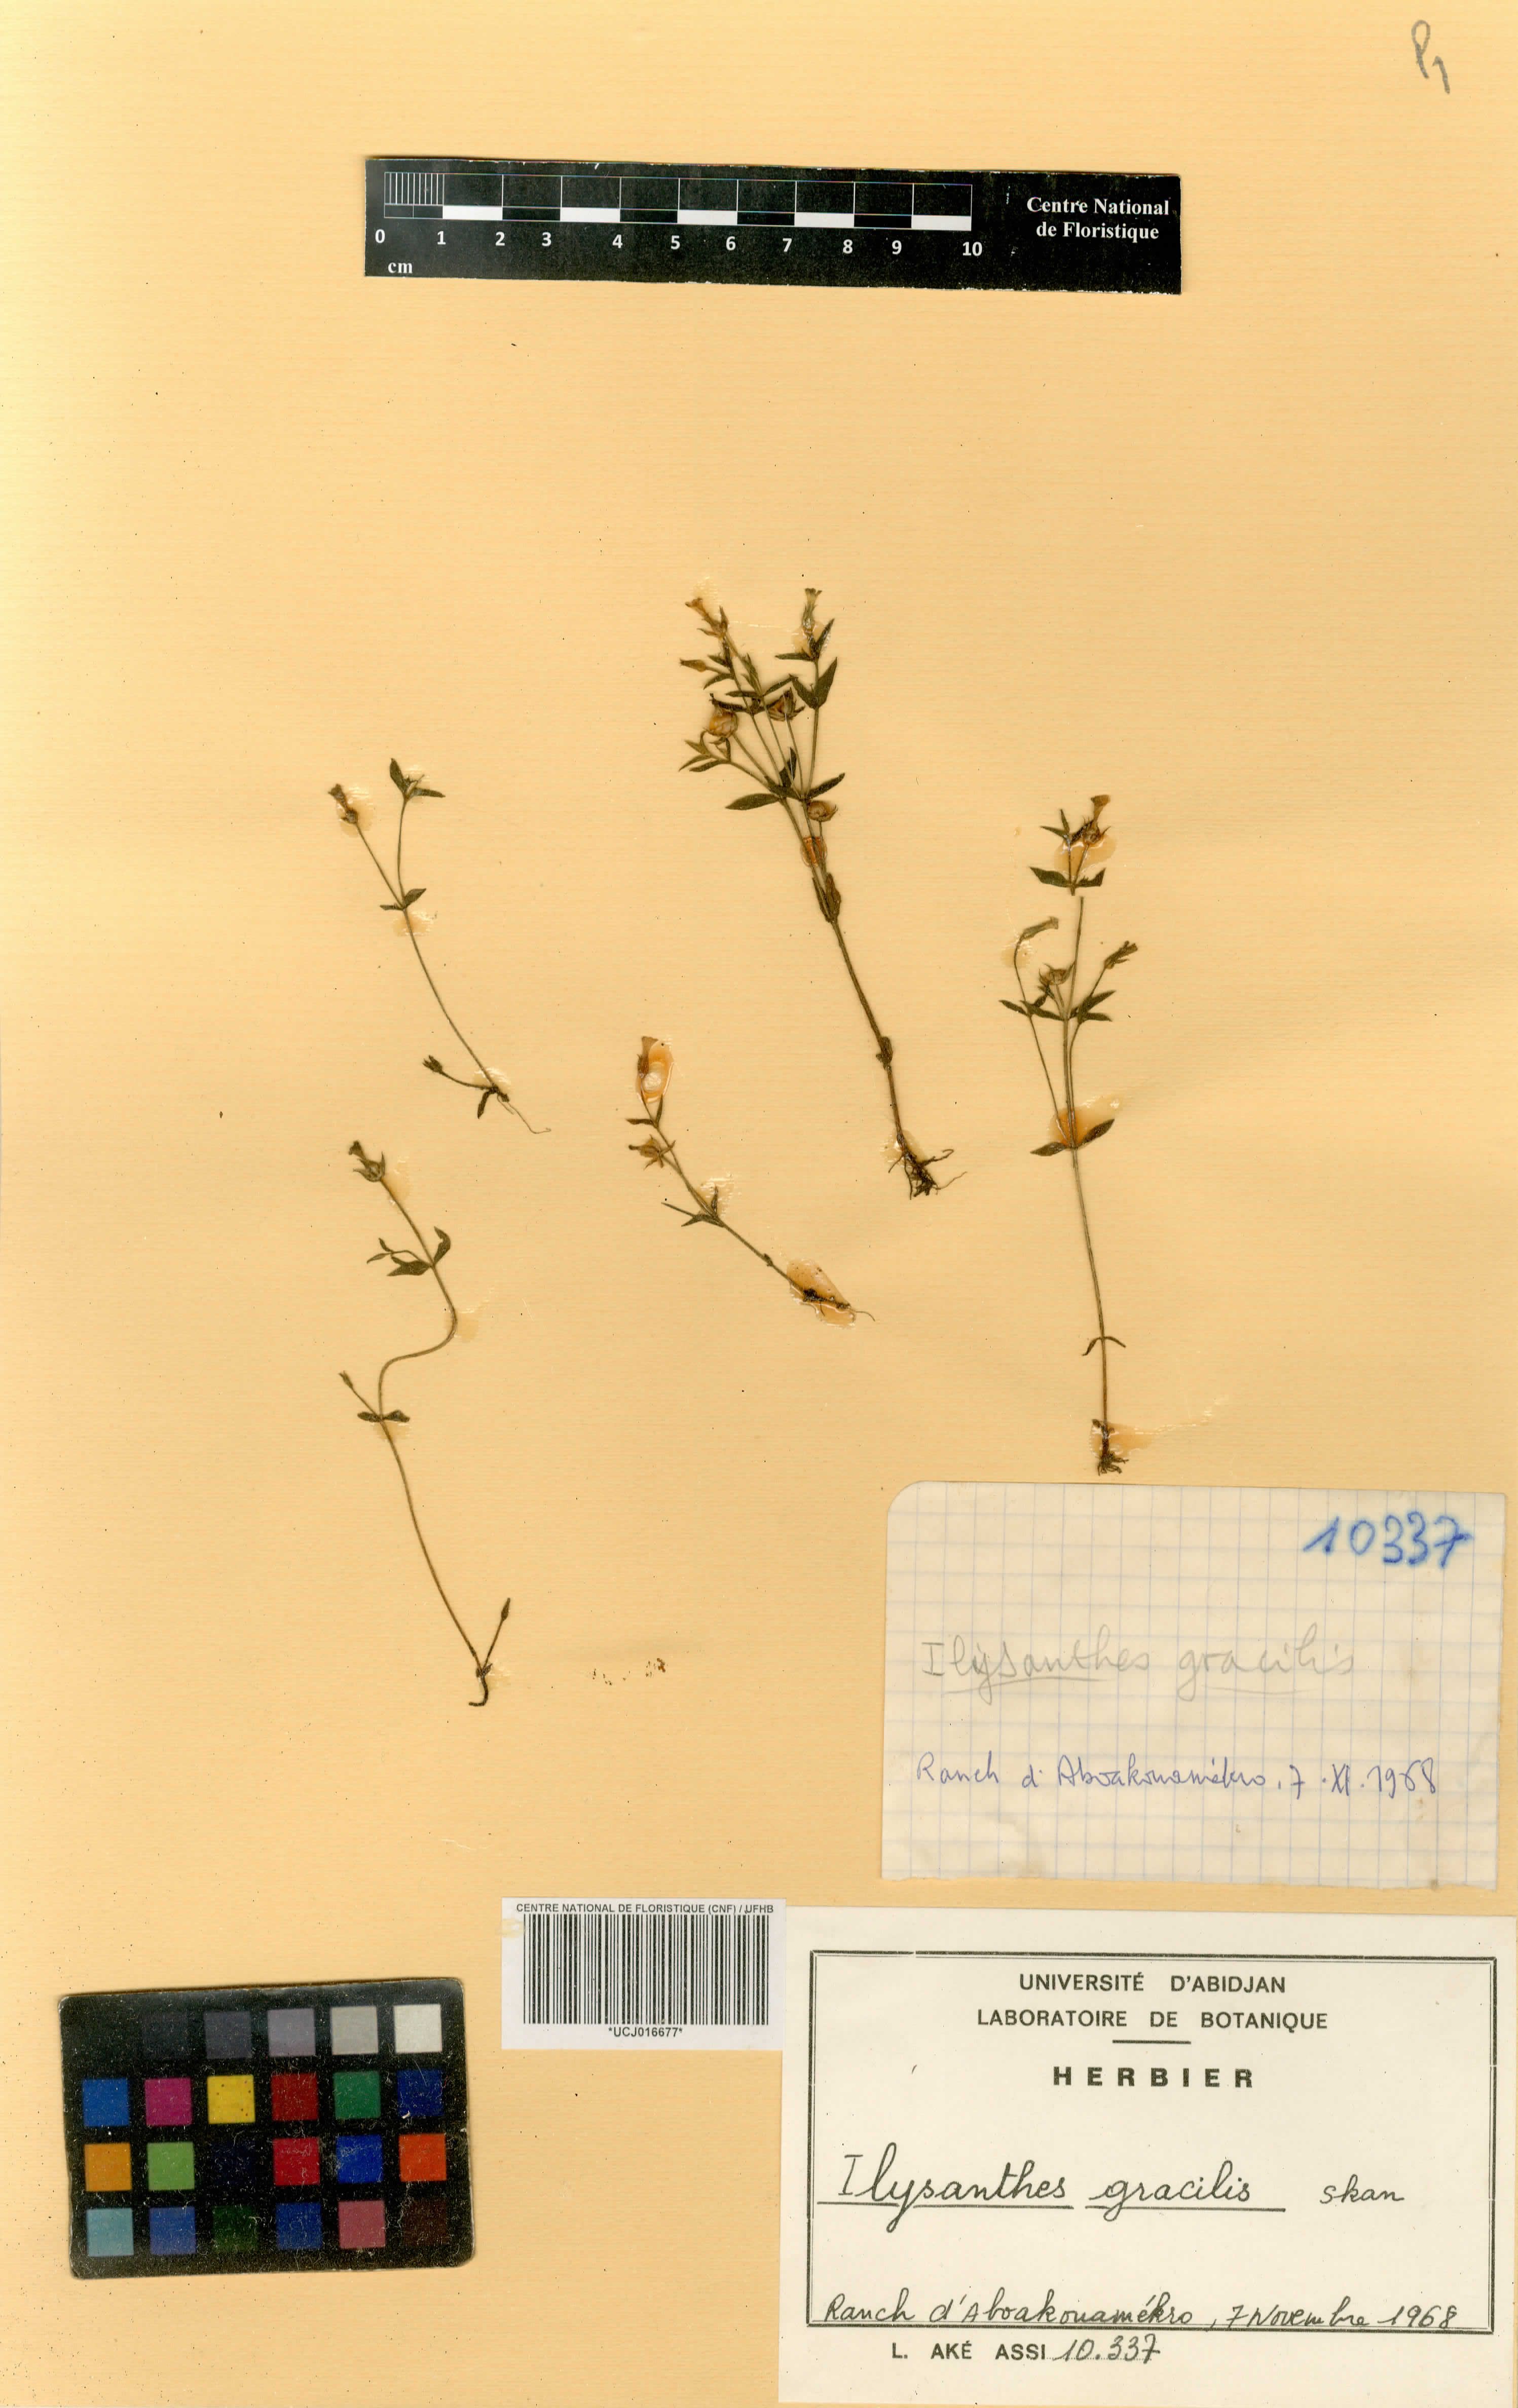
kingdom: Plantae
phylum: Tracheophyta
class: Magnoliopsida
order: Lamiales
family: Linderniaceae
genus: Linderniella
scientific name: Linderniella gracilis
